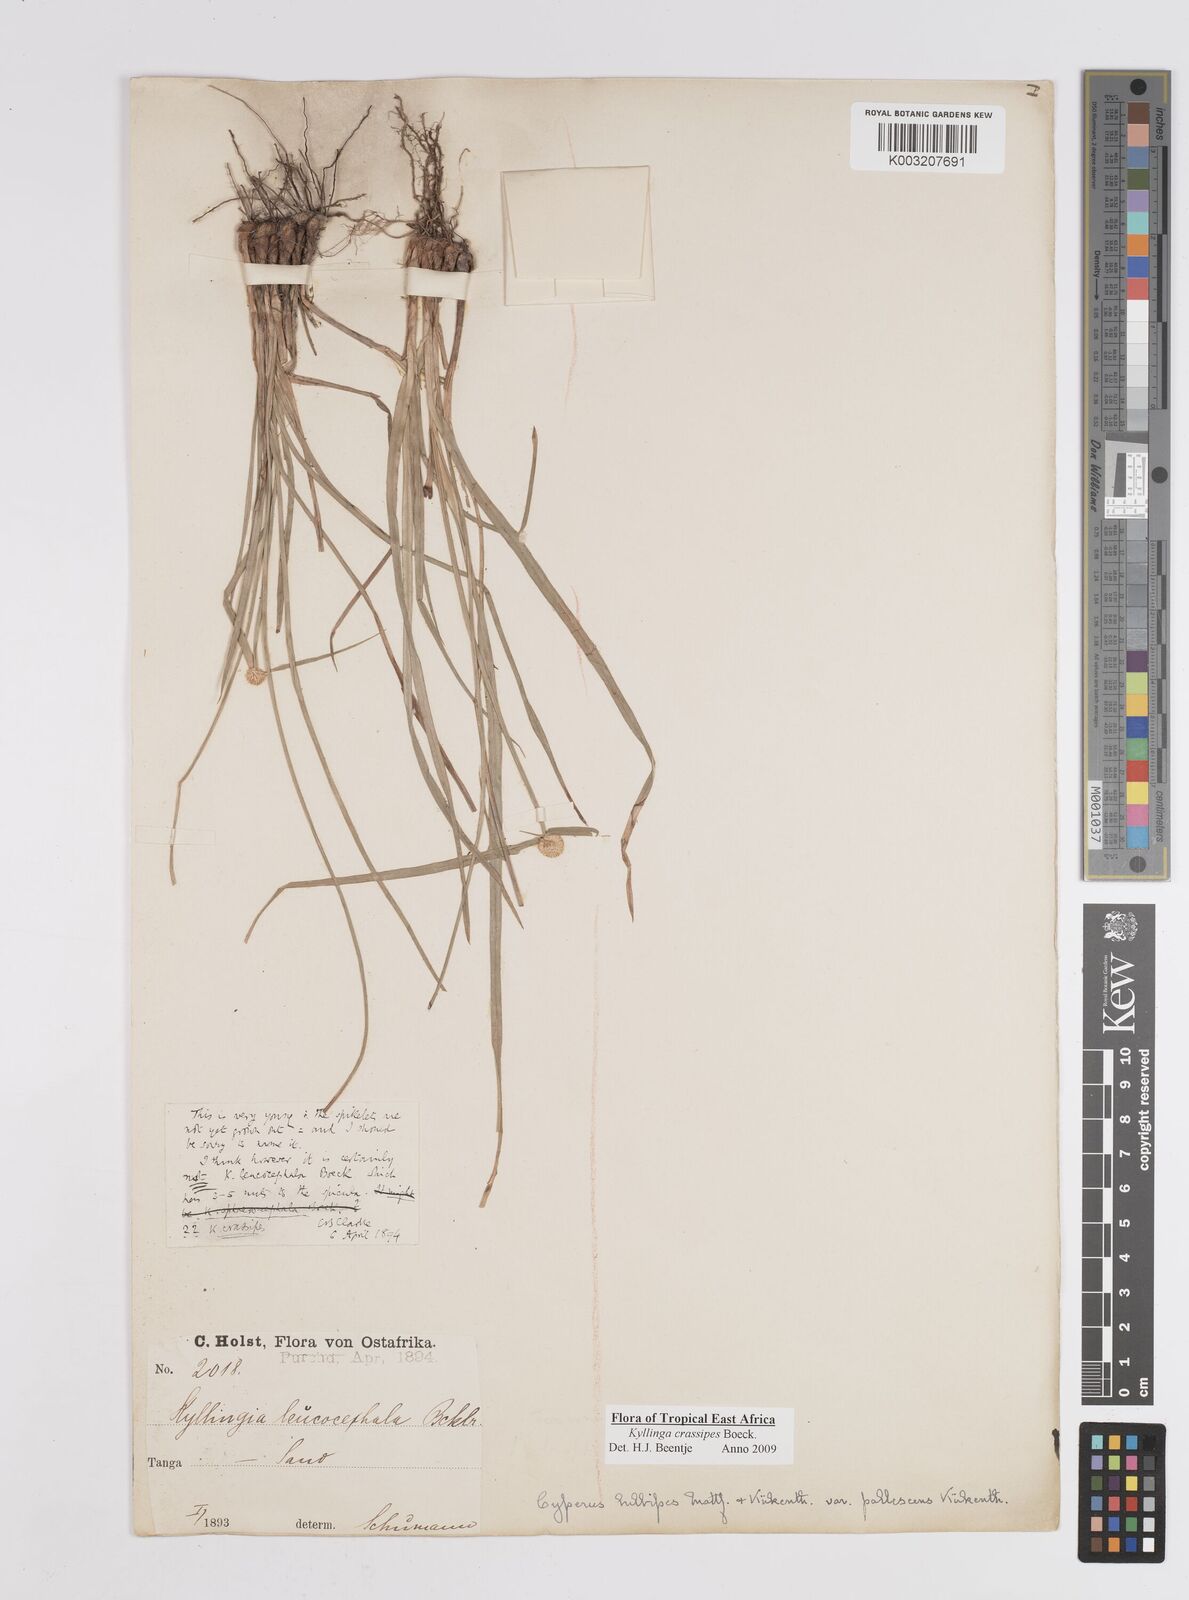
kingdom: Plantae
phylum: Tracheophyta
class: Liliopsida
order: Poales
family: Cyperaceae
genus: Cyperus
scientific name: Cyperus crassipes
